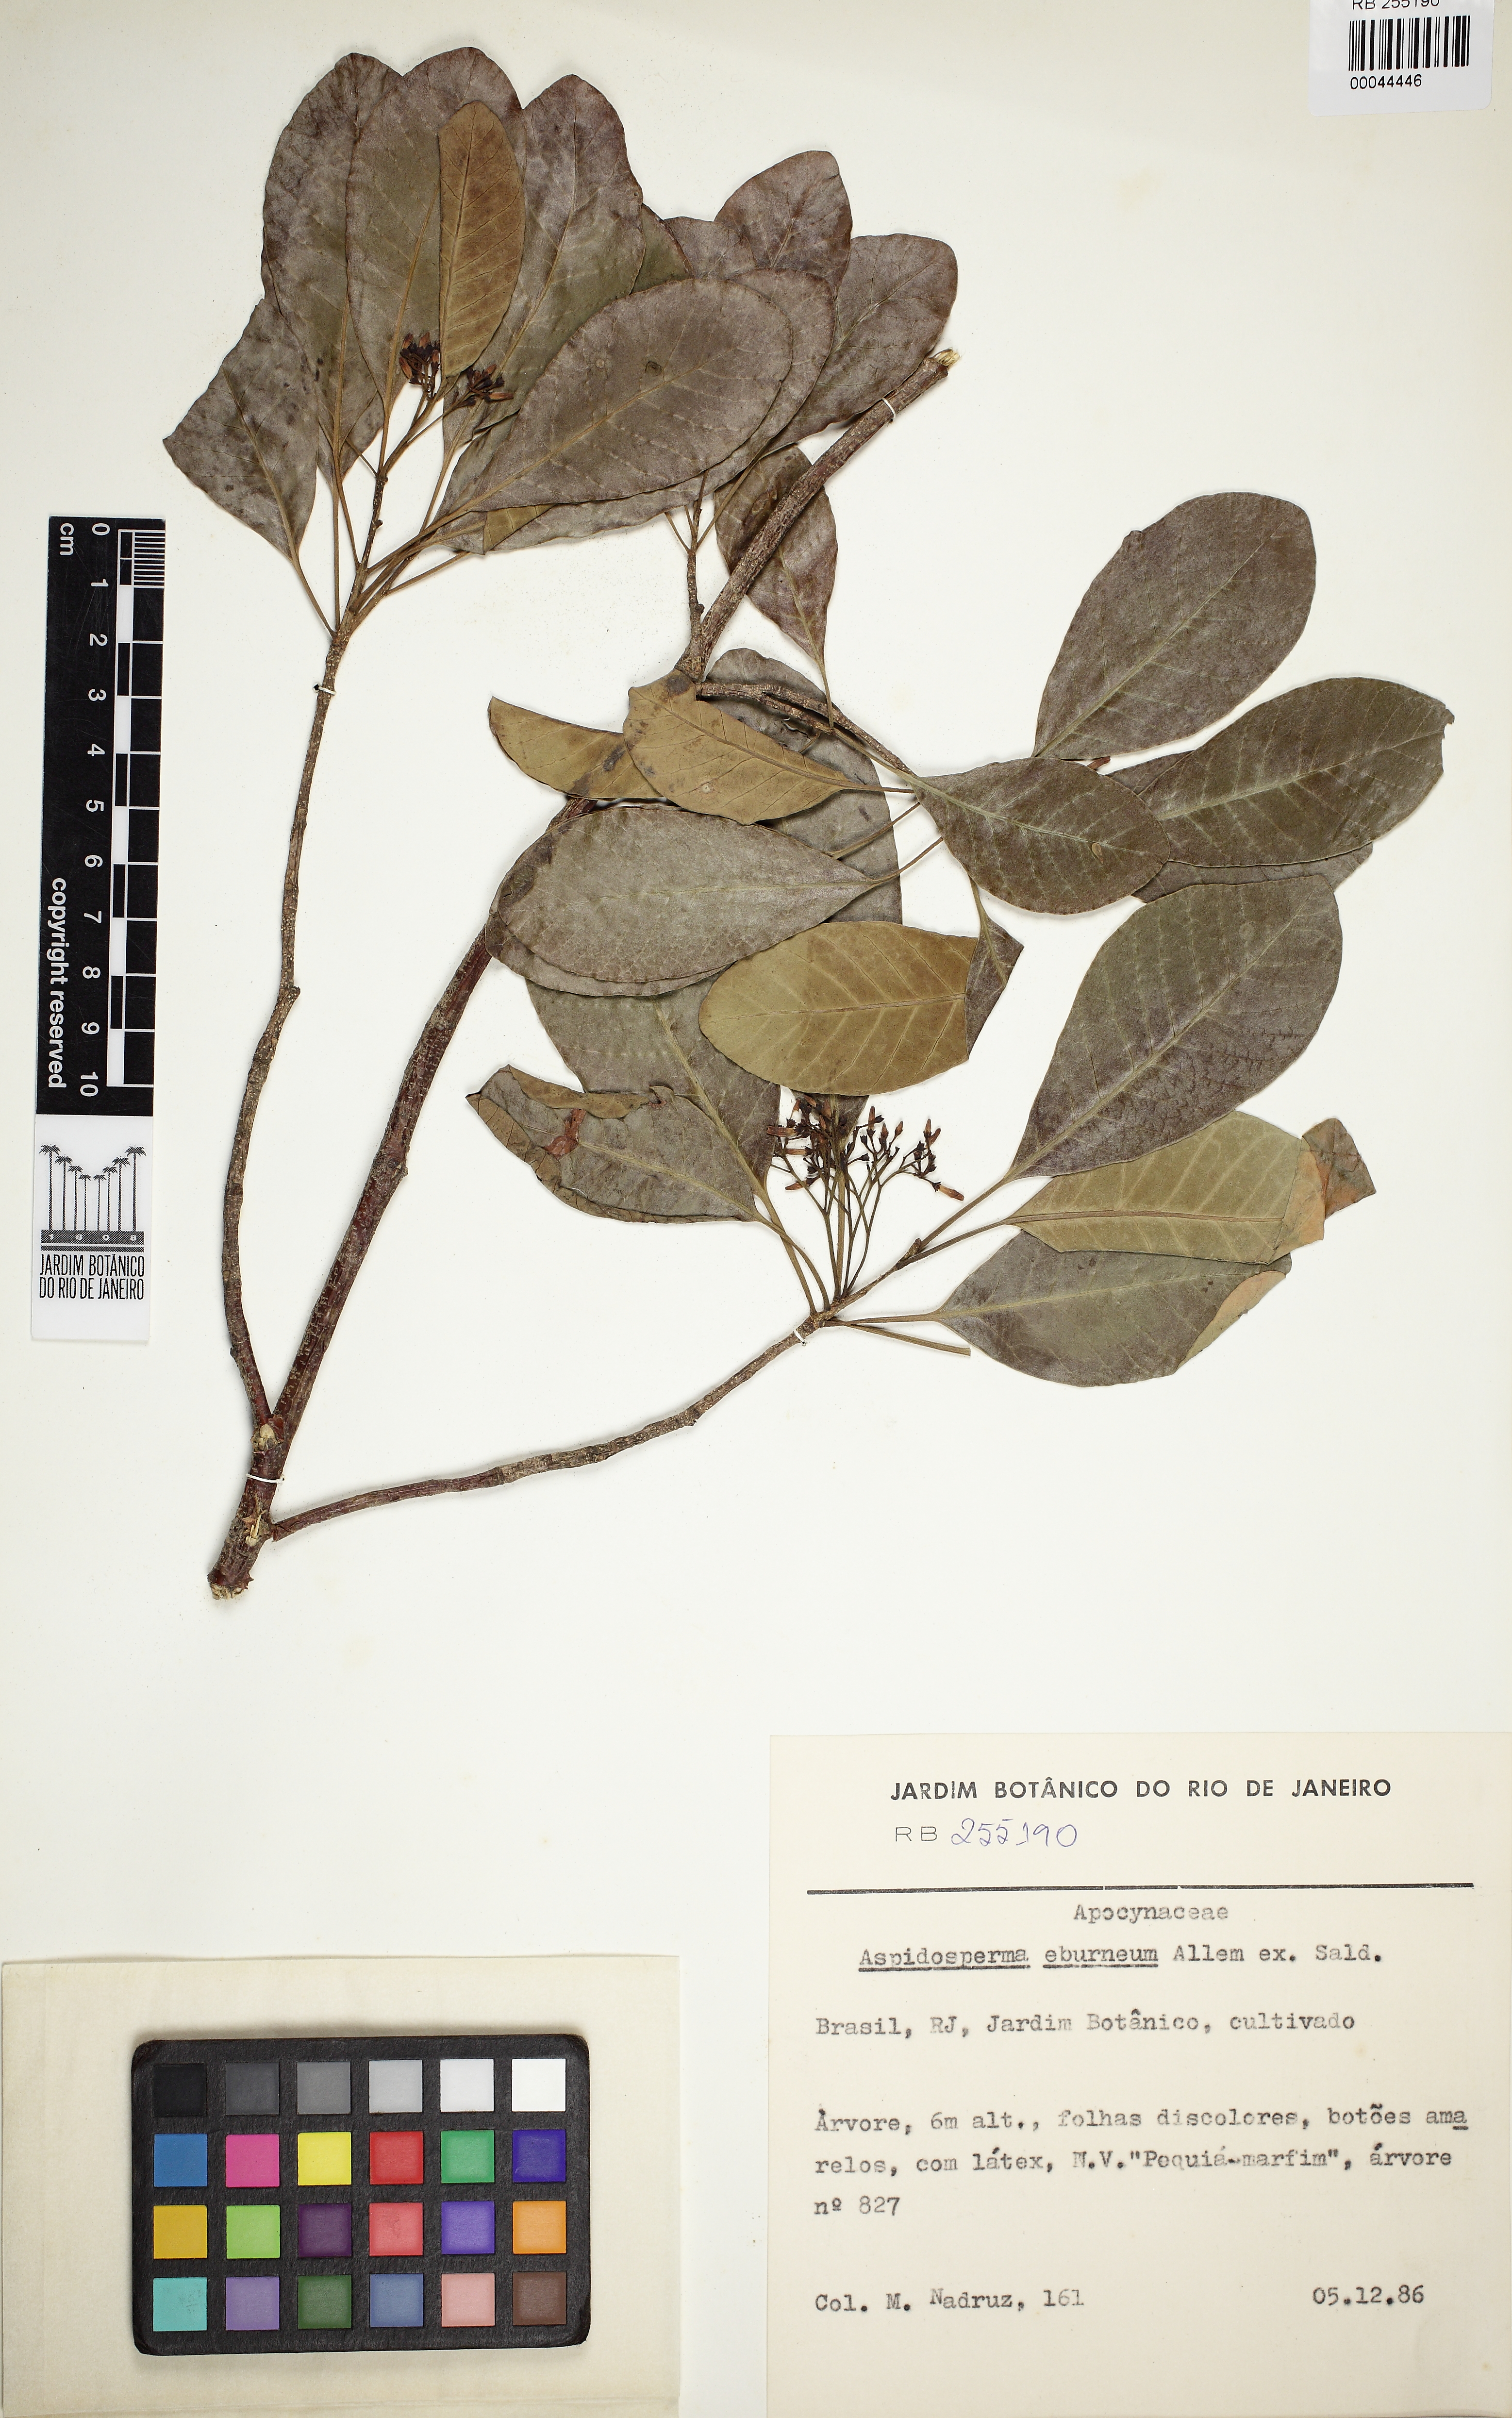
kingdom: Plantae
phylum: Tracheophyta
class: Magnoliopsida
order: Gentianales
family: Apocynaceae
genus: Aspidosperma
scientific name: Aspidosperma pyricollum
